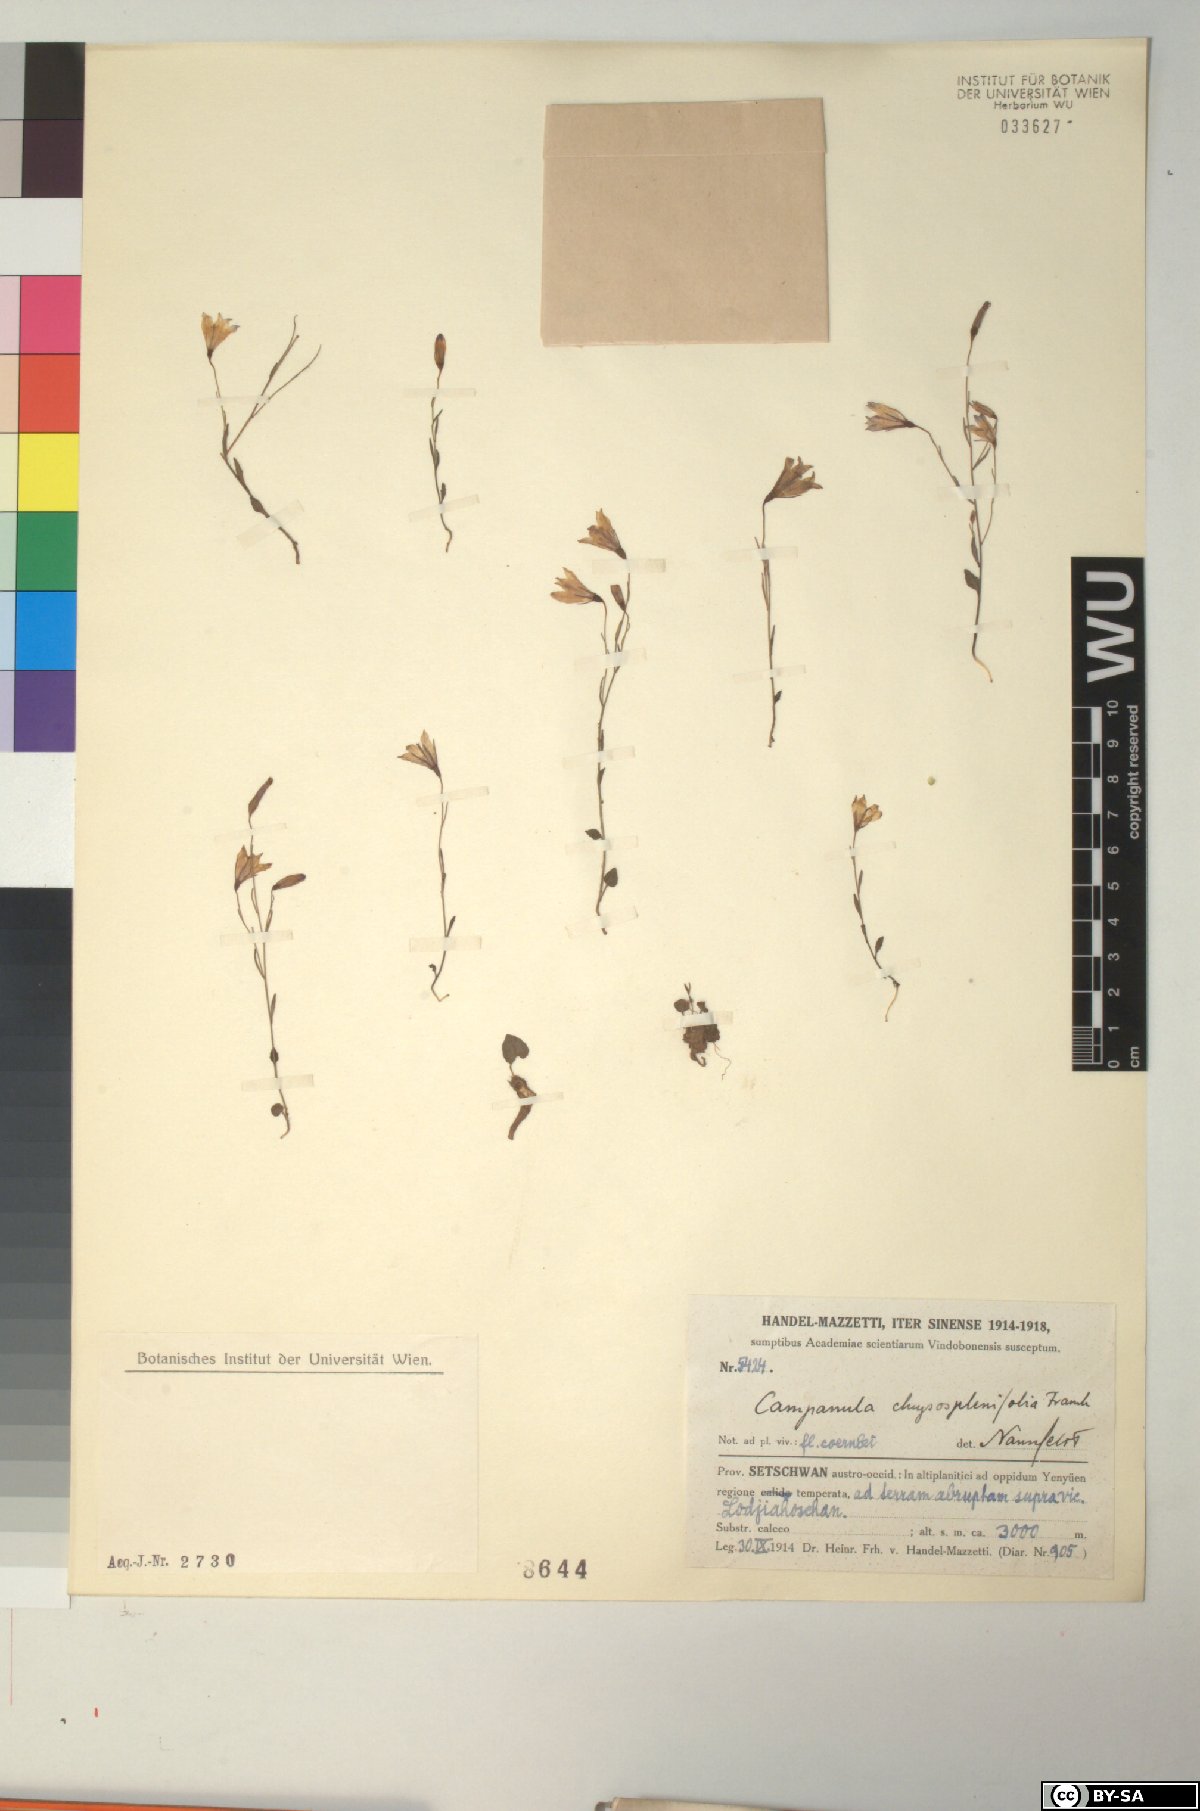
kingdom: Plantae
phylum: Tracheophyta
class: Magnoliopsida
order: Asterales
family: Campanulaceae
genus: Campanula
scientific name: Campanula chrysosplenifolia
